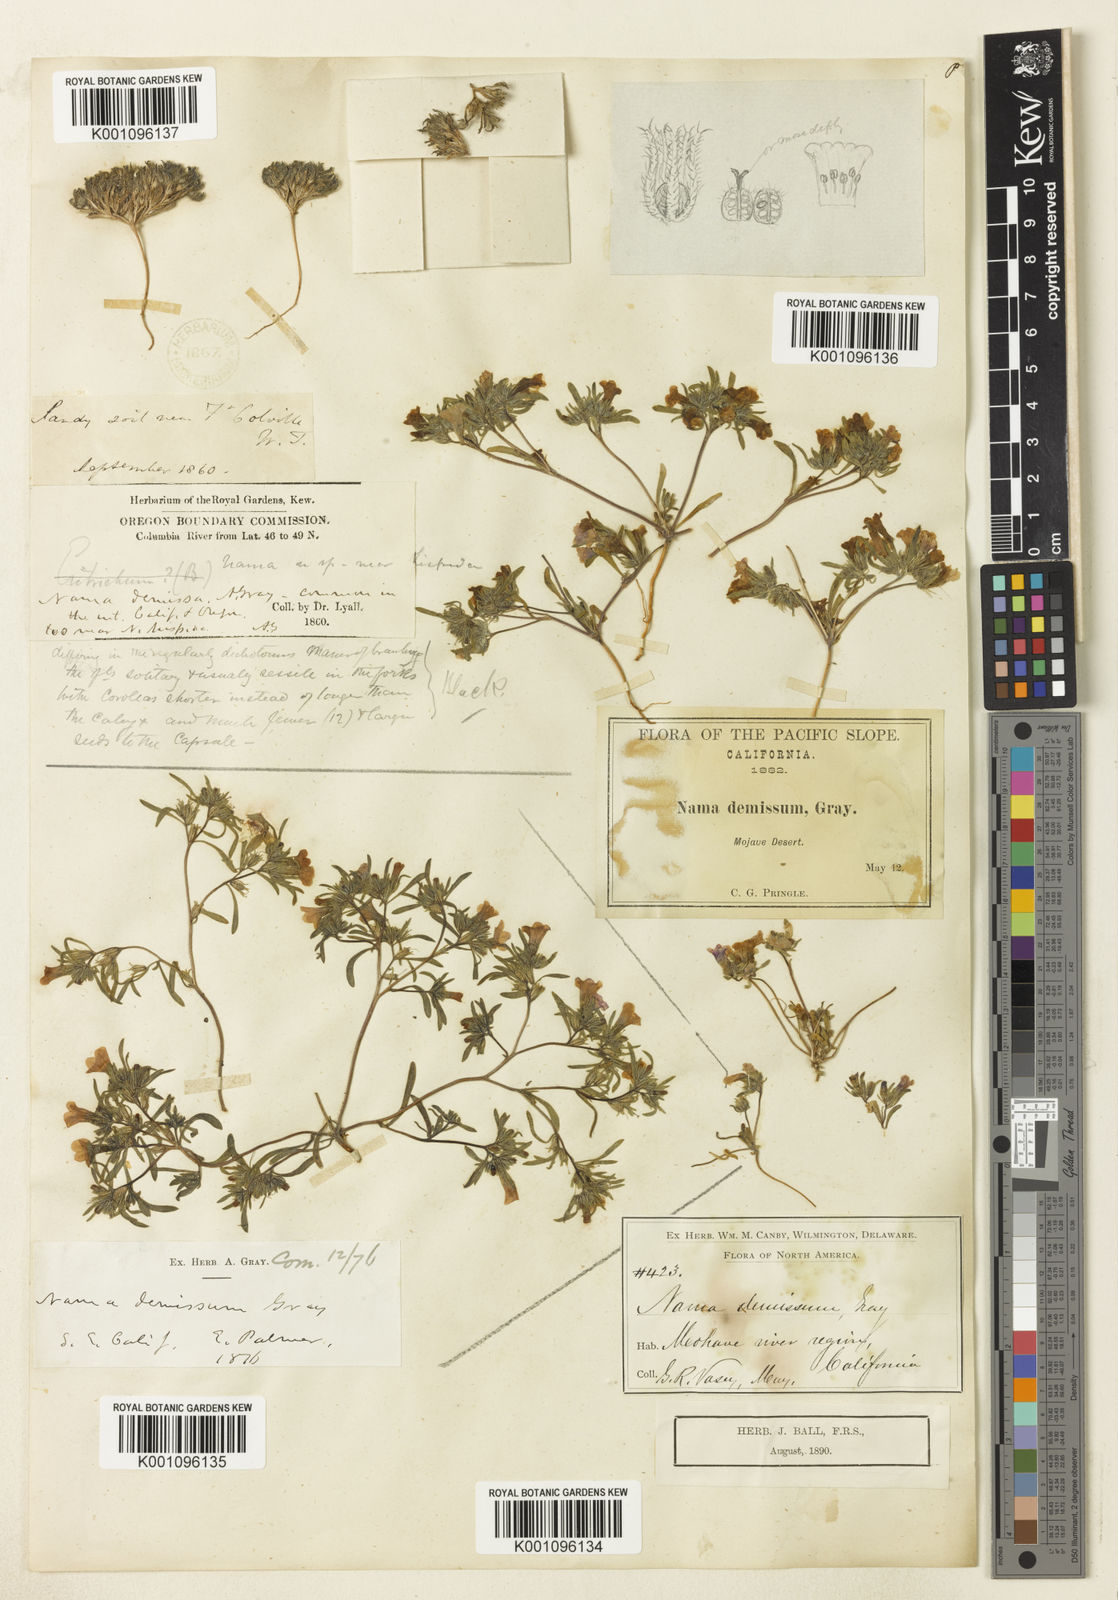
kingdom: Plantae
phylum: Tracheophyta
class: Magnoliopsida
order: Boraginales
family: Namaceae
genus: Nama
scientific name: Nama demissa
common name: Leafy nama
